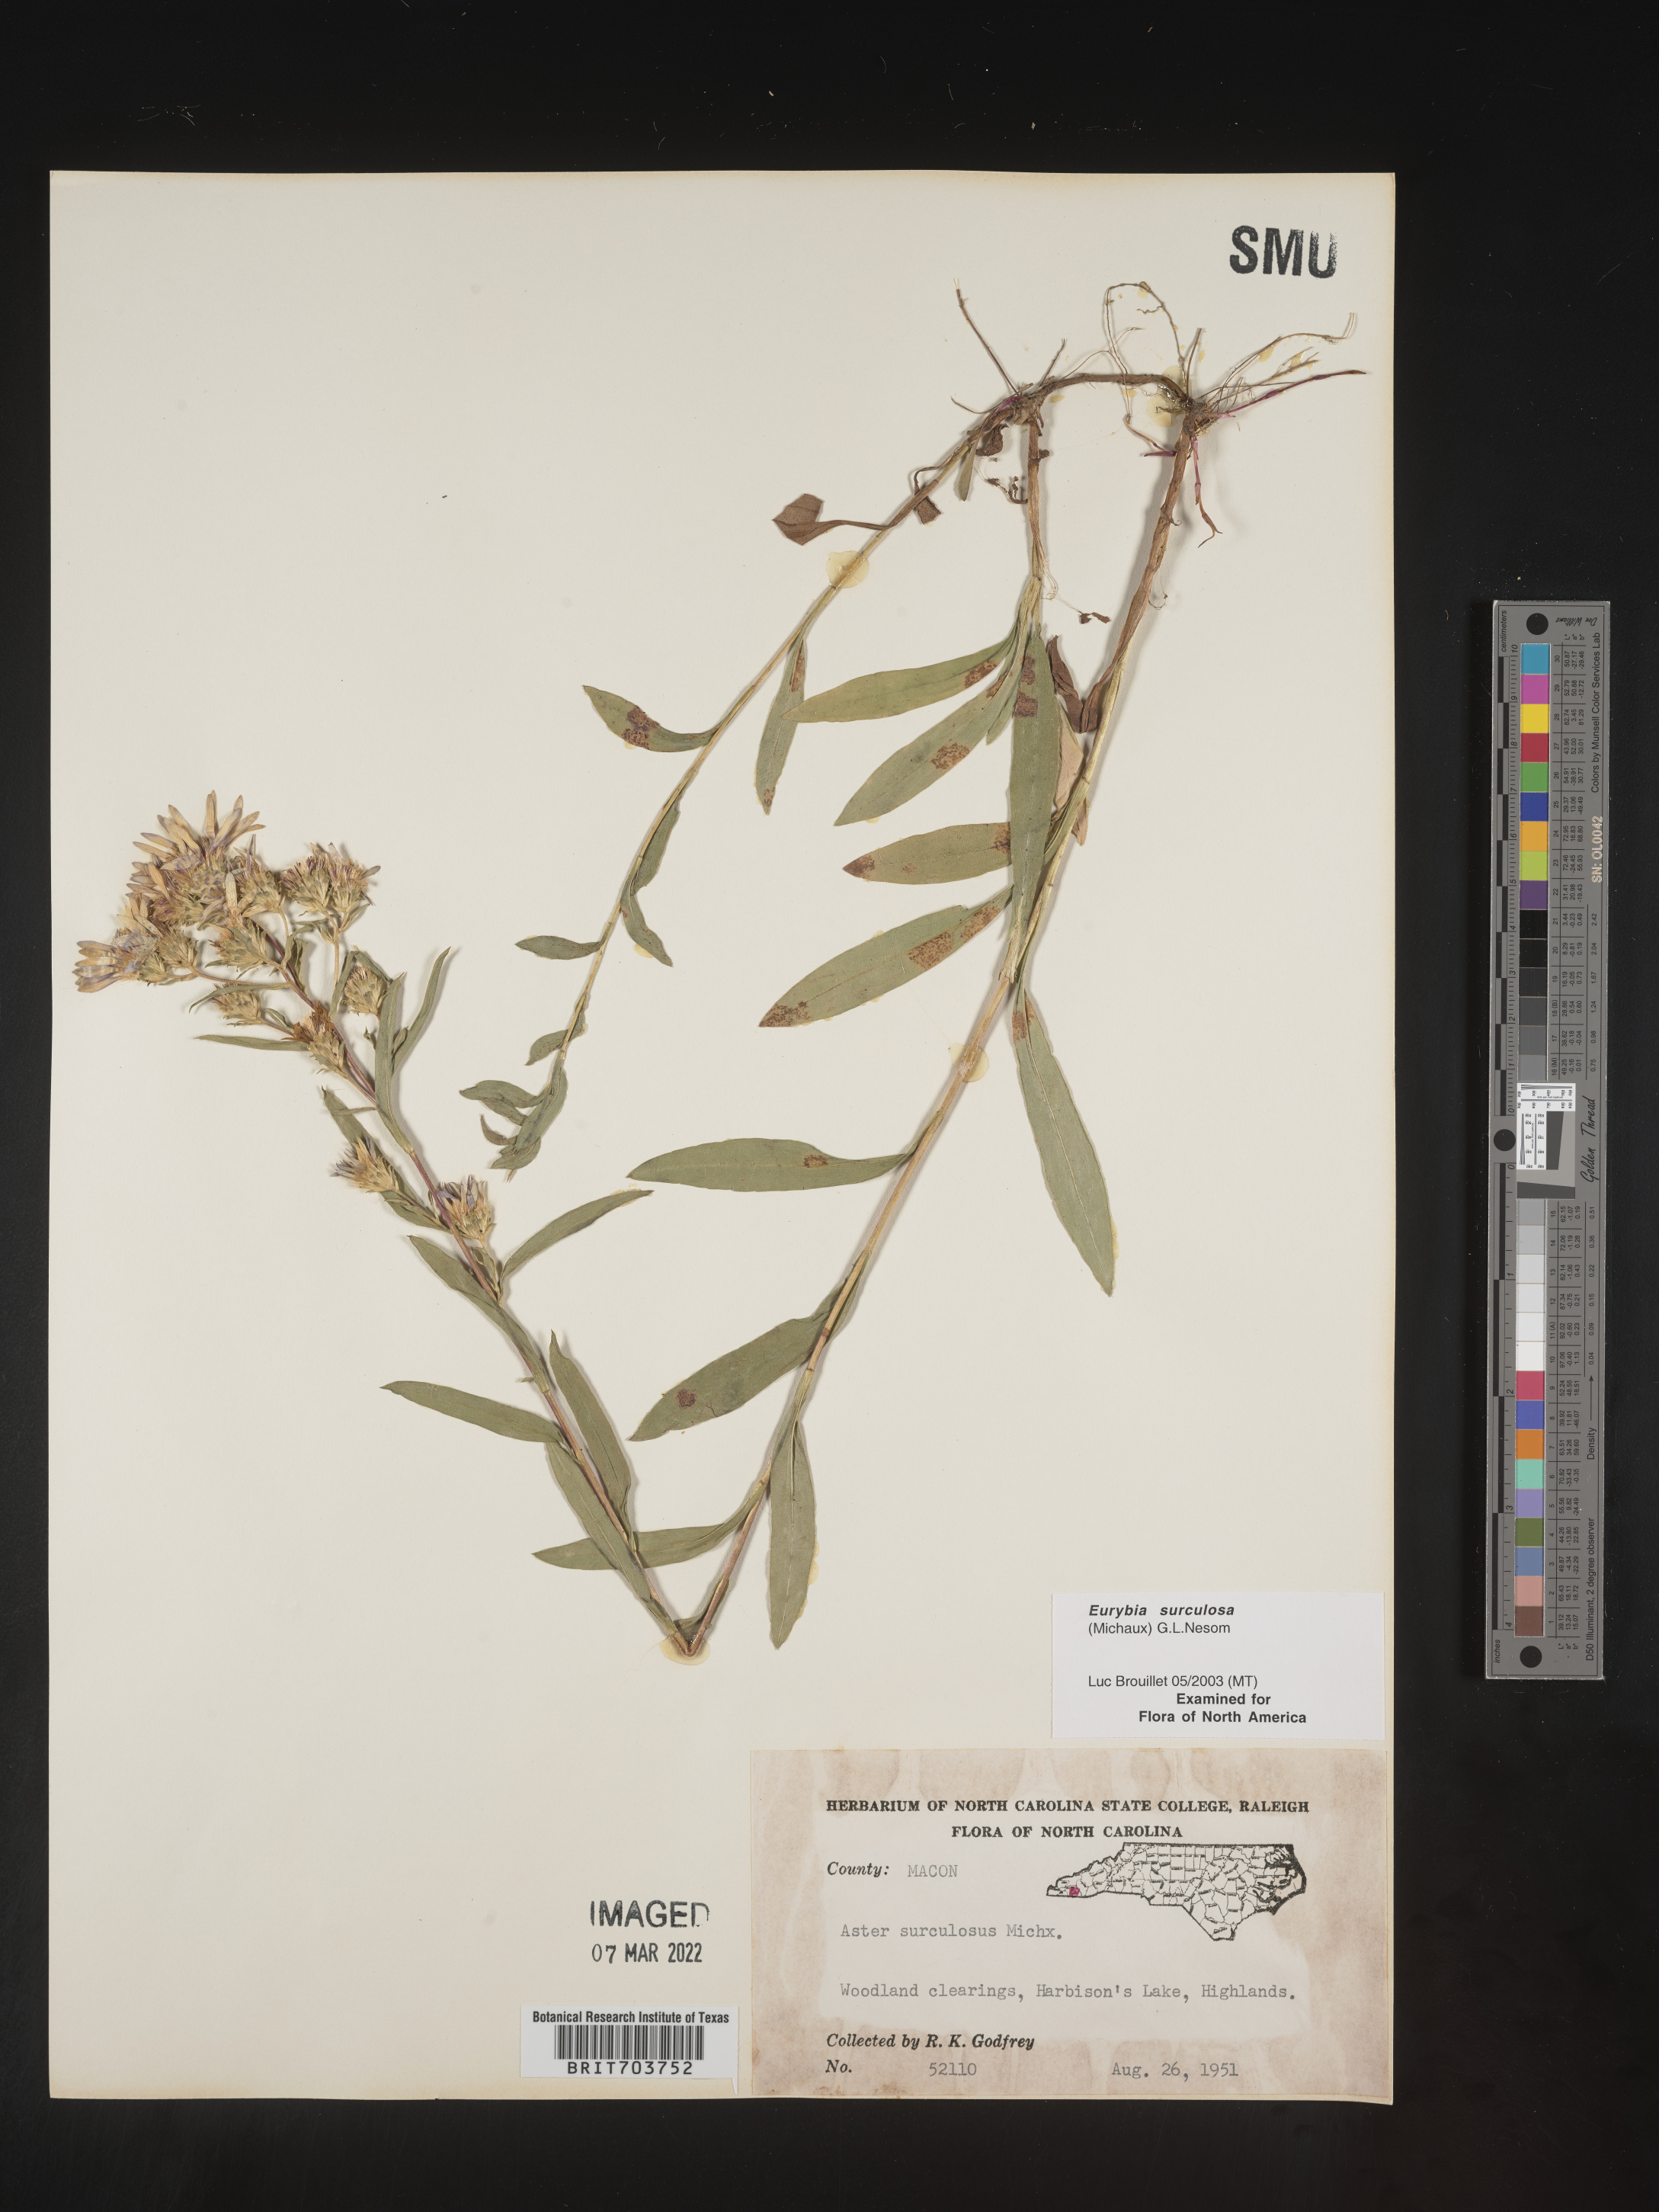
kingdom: Plantae
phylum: Tracheophyta
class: Magnoliopsida
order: Asterales
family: Asteraceae
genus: Eurybia
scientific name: Eurybia surculosa
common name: Creeping aster
